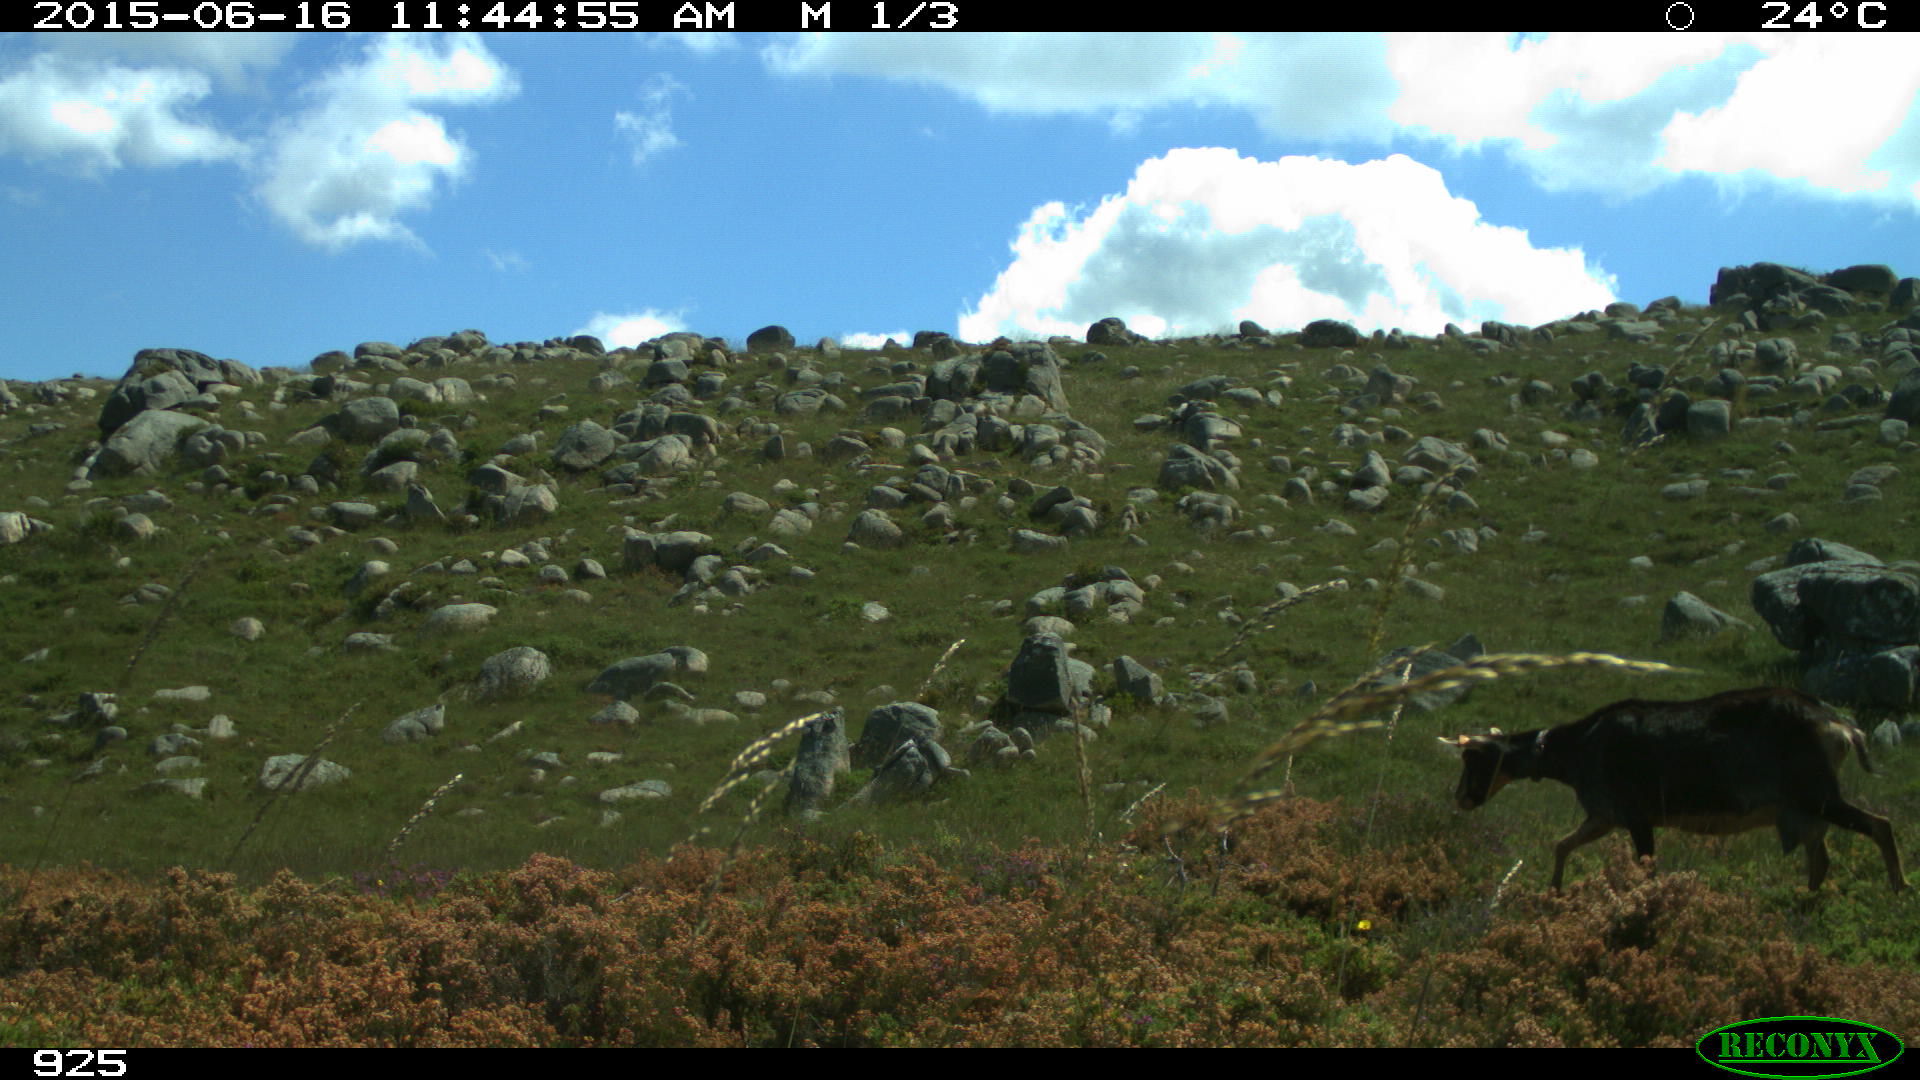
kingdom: Animalia
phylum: Chordata
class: Mammalia
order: Artiodactyla
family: Bovidae
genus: Capra
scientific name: Capra hircus
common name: Domestic goat
